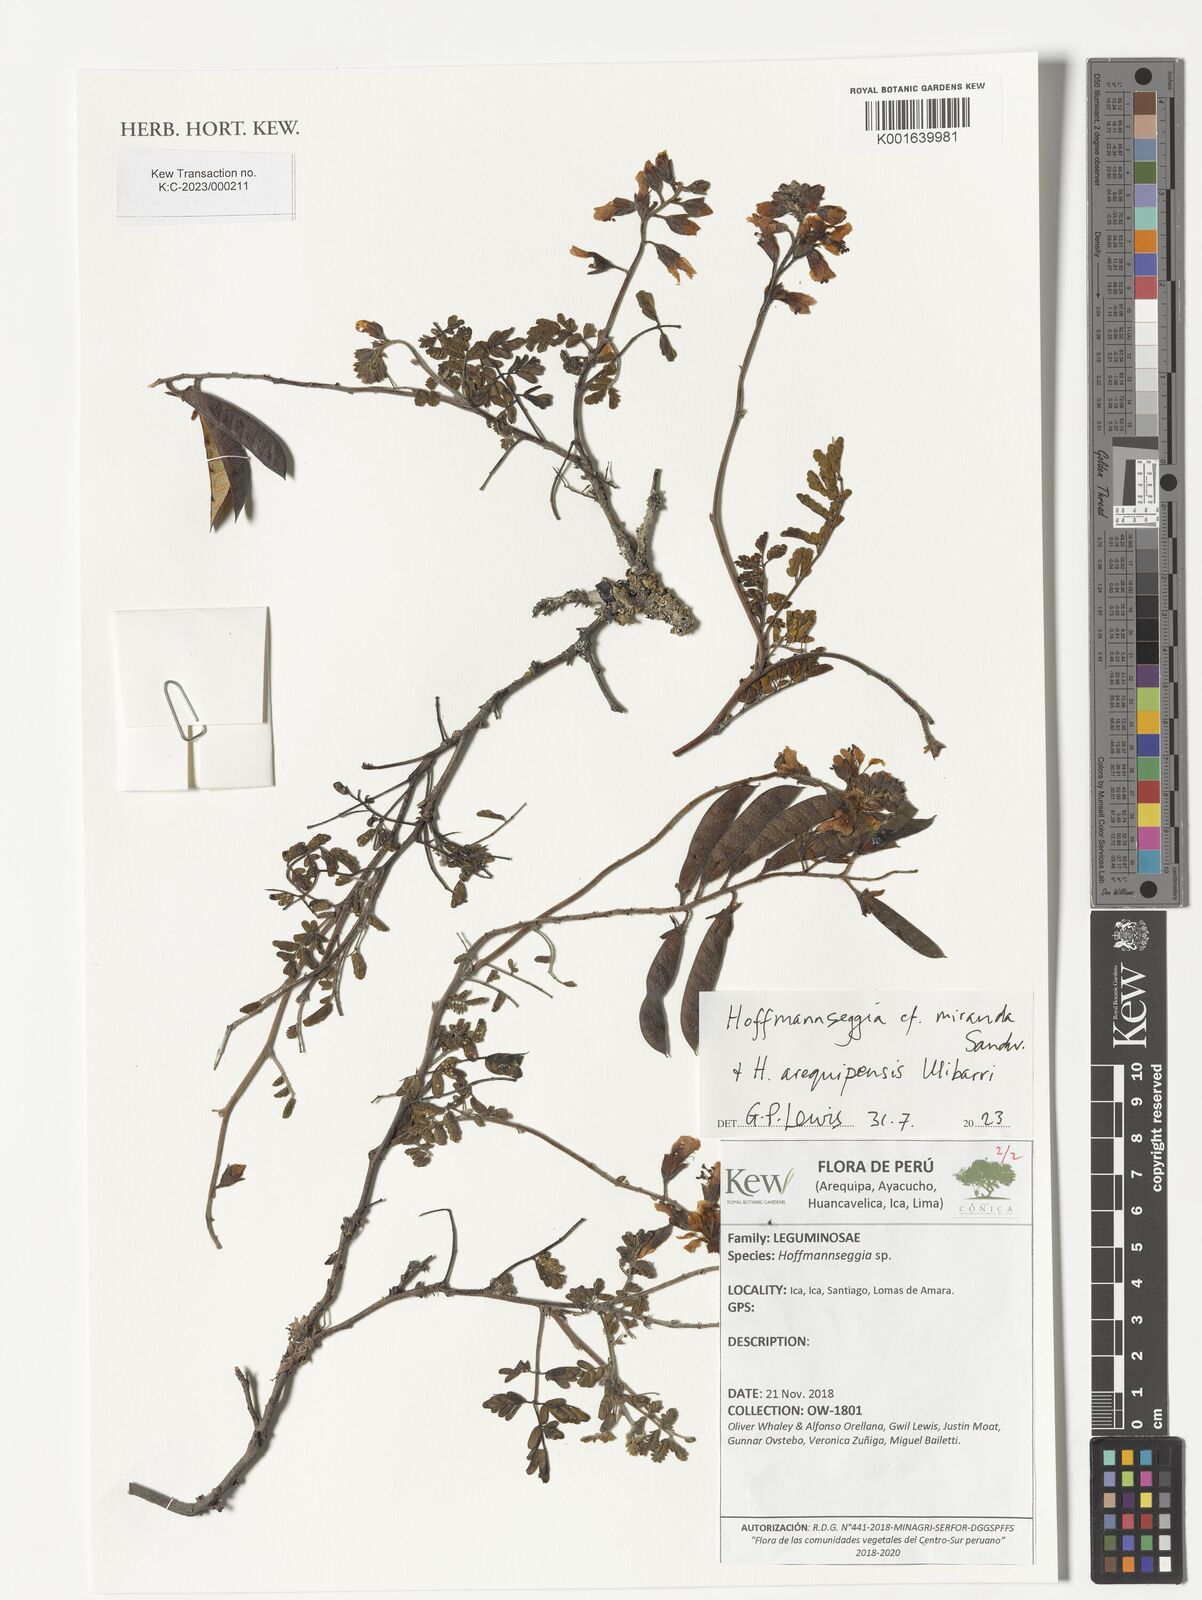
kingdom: Plantae
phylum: Tracheophyta
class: Magnoliopsida
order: Fabales
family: Fabaceae
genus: Hoffmannseggia
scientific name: Hoffmannseggia miranda
